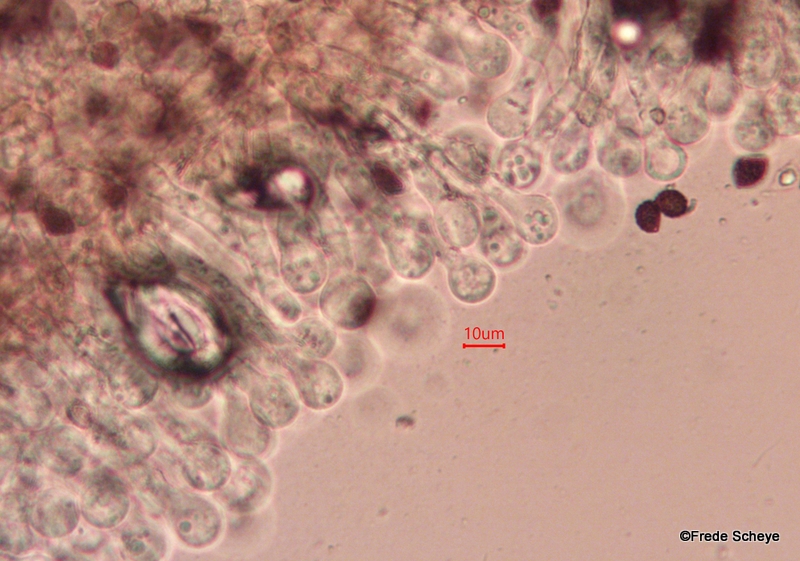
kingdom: Fungi
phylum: Basidiomycota
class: Agaricomycetes
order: Agaricales
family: Psathyrellaceae
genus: Lacrymaria
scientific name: Lacrymaria lacrymabunda
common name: grædende mørkhat
